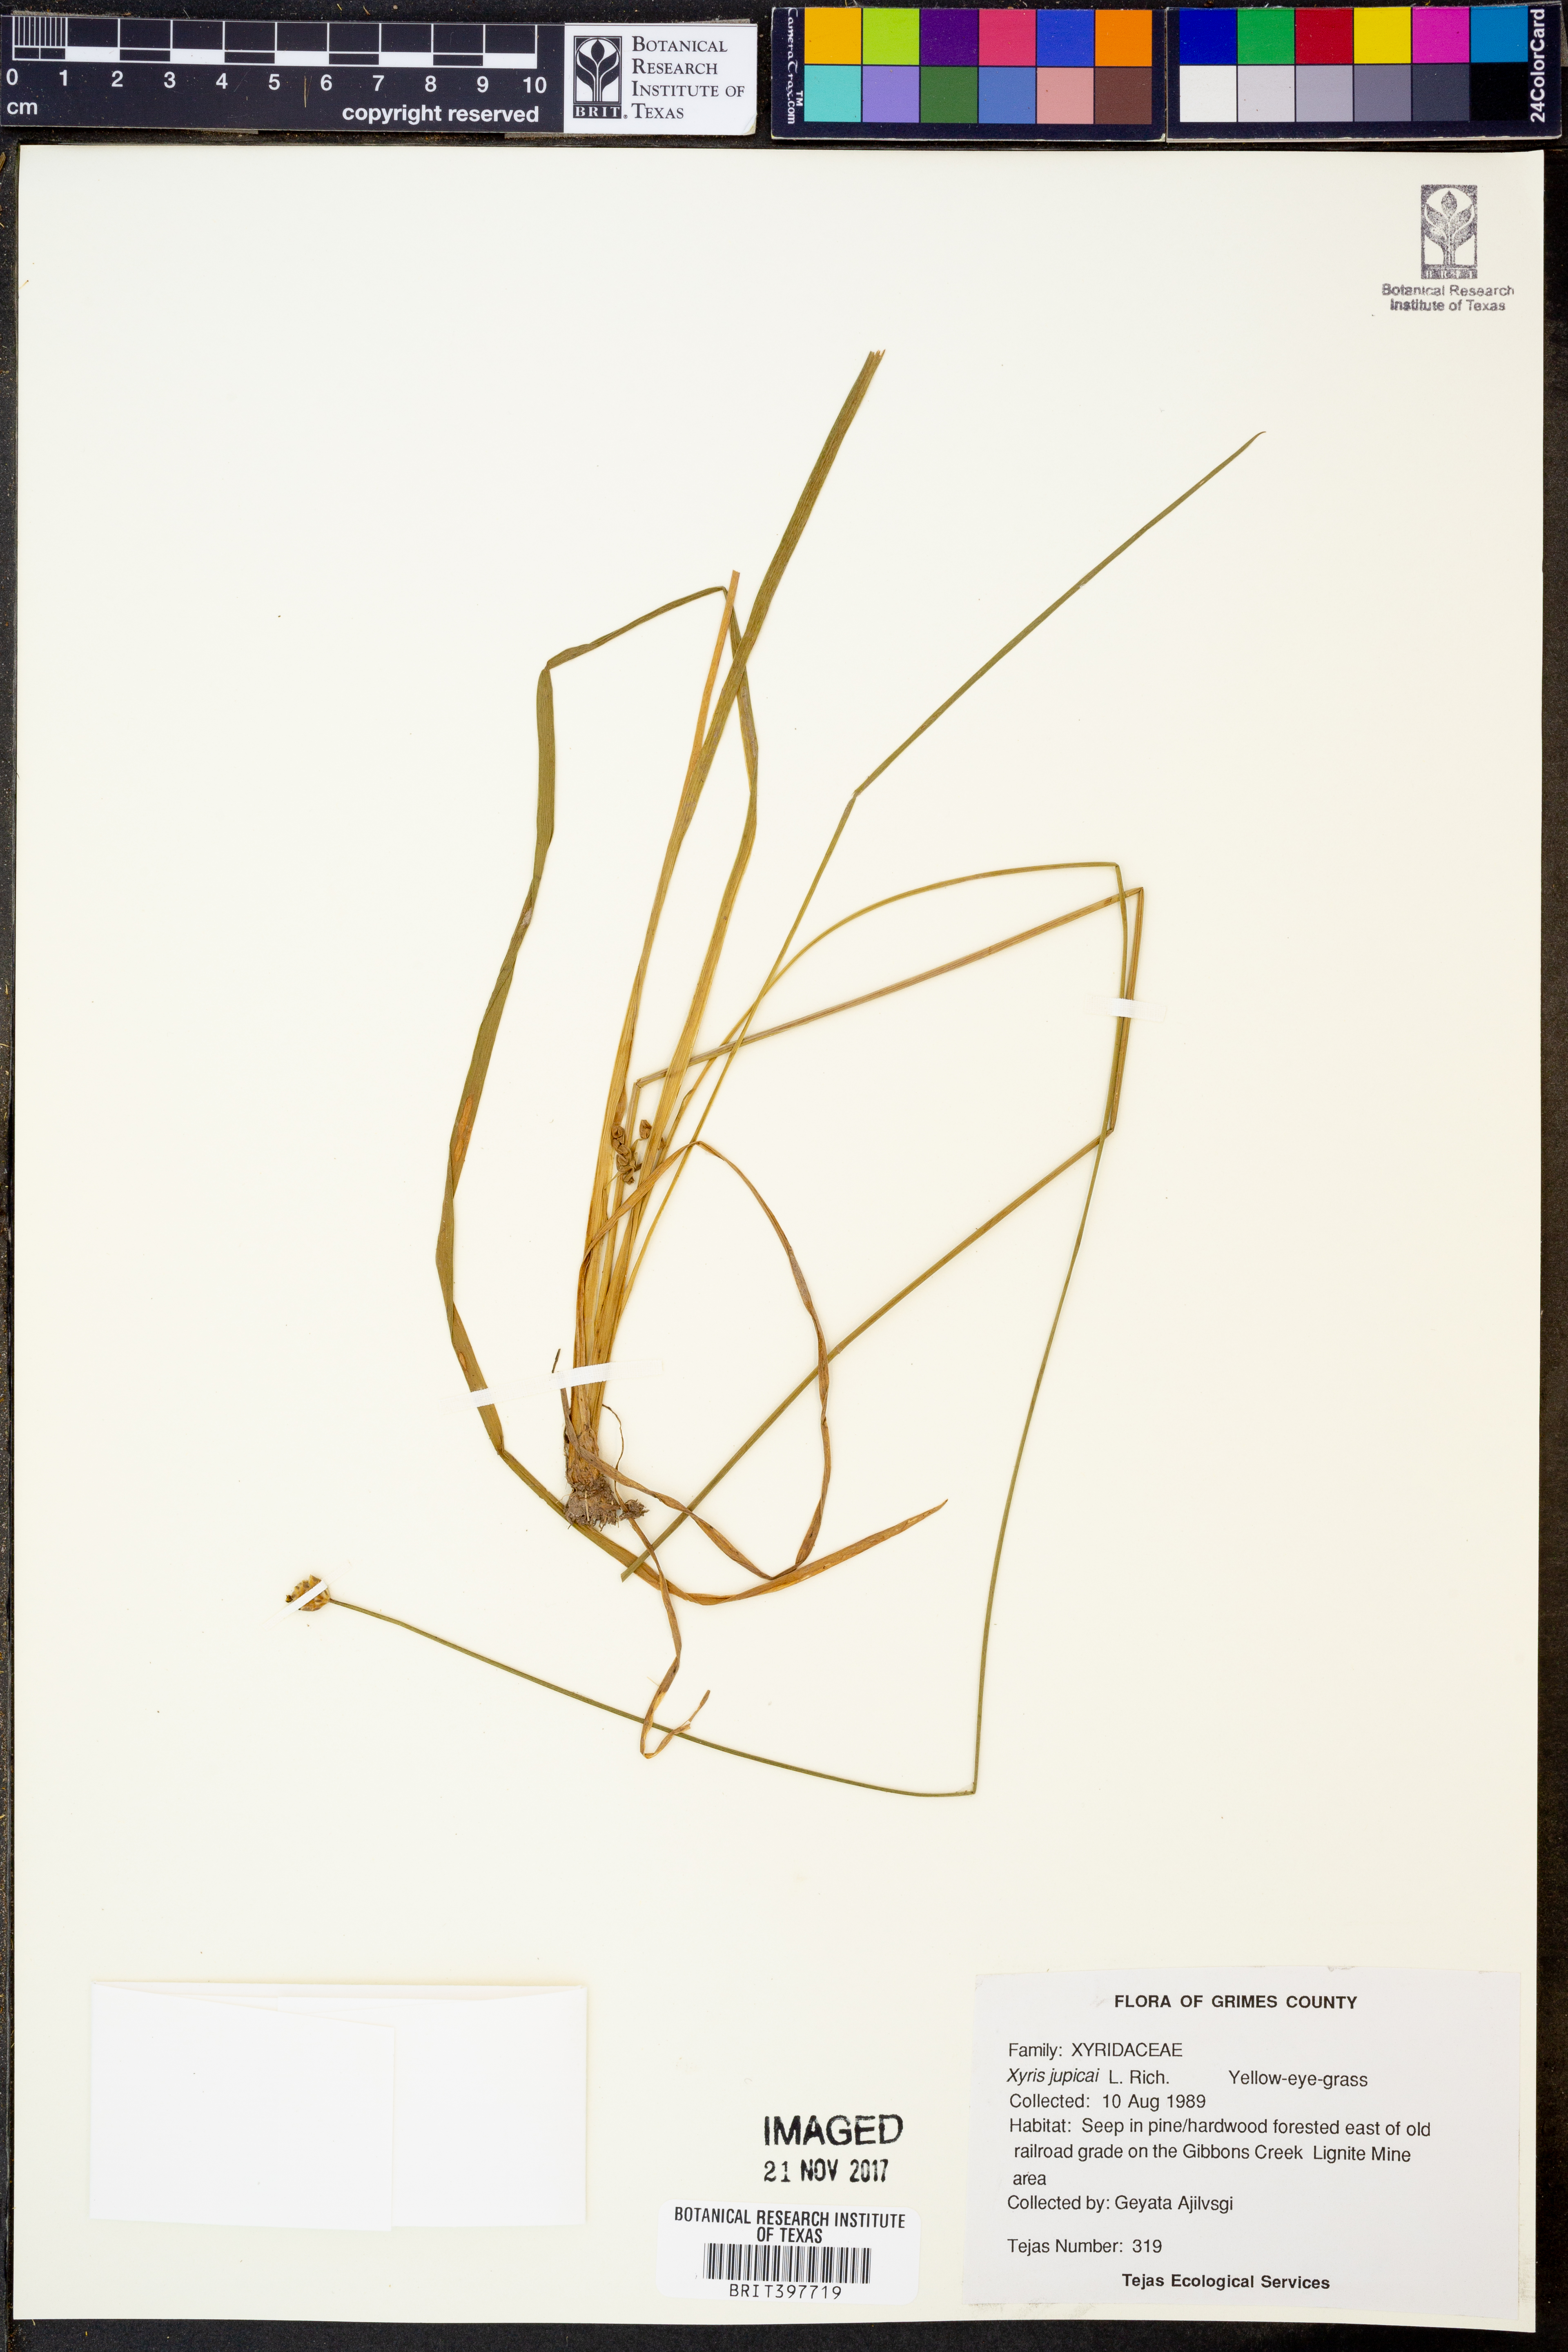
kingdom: Plantae
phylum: Tracheophyta
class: Liliopsida
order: Poales
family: Xyridaceae
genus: Xyris
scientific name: Xyris jupicai
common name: Richard's yelloweyed grass
